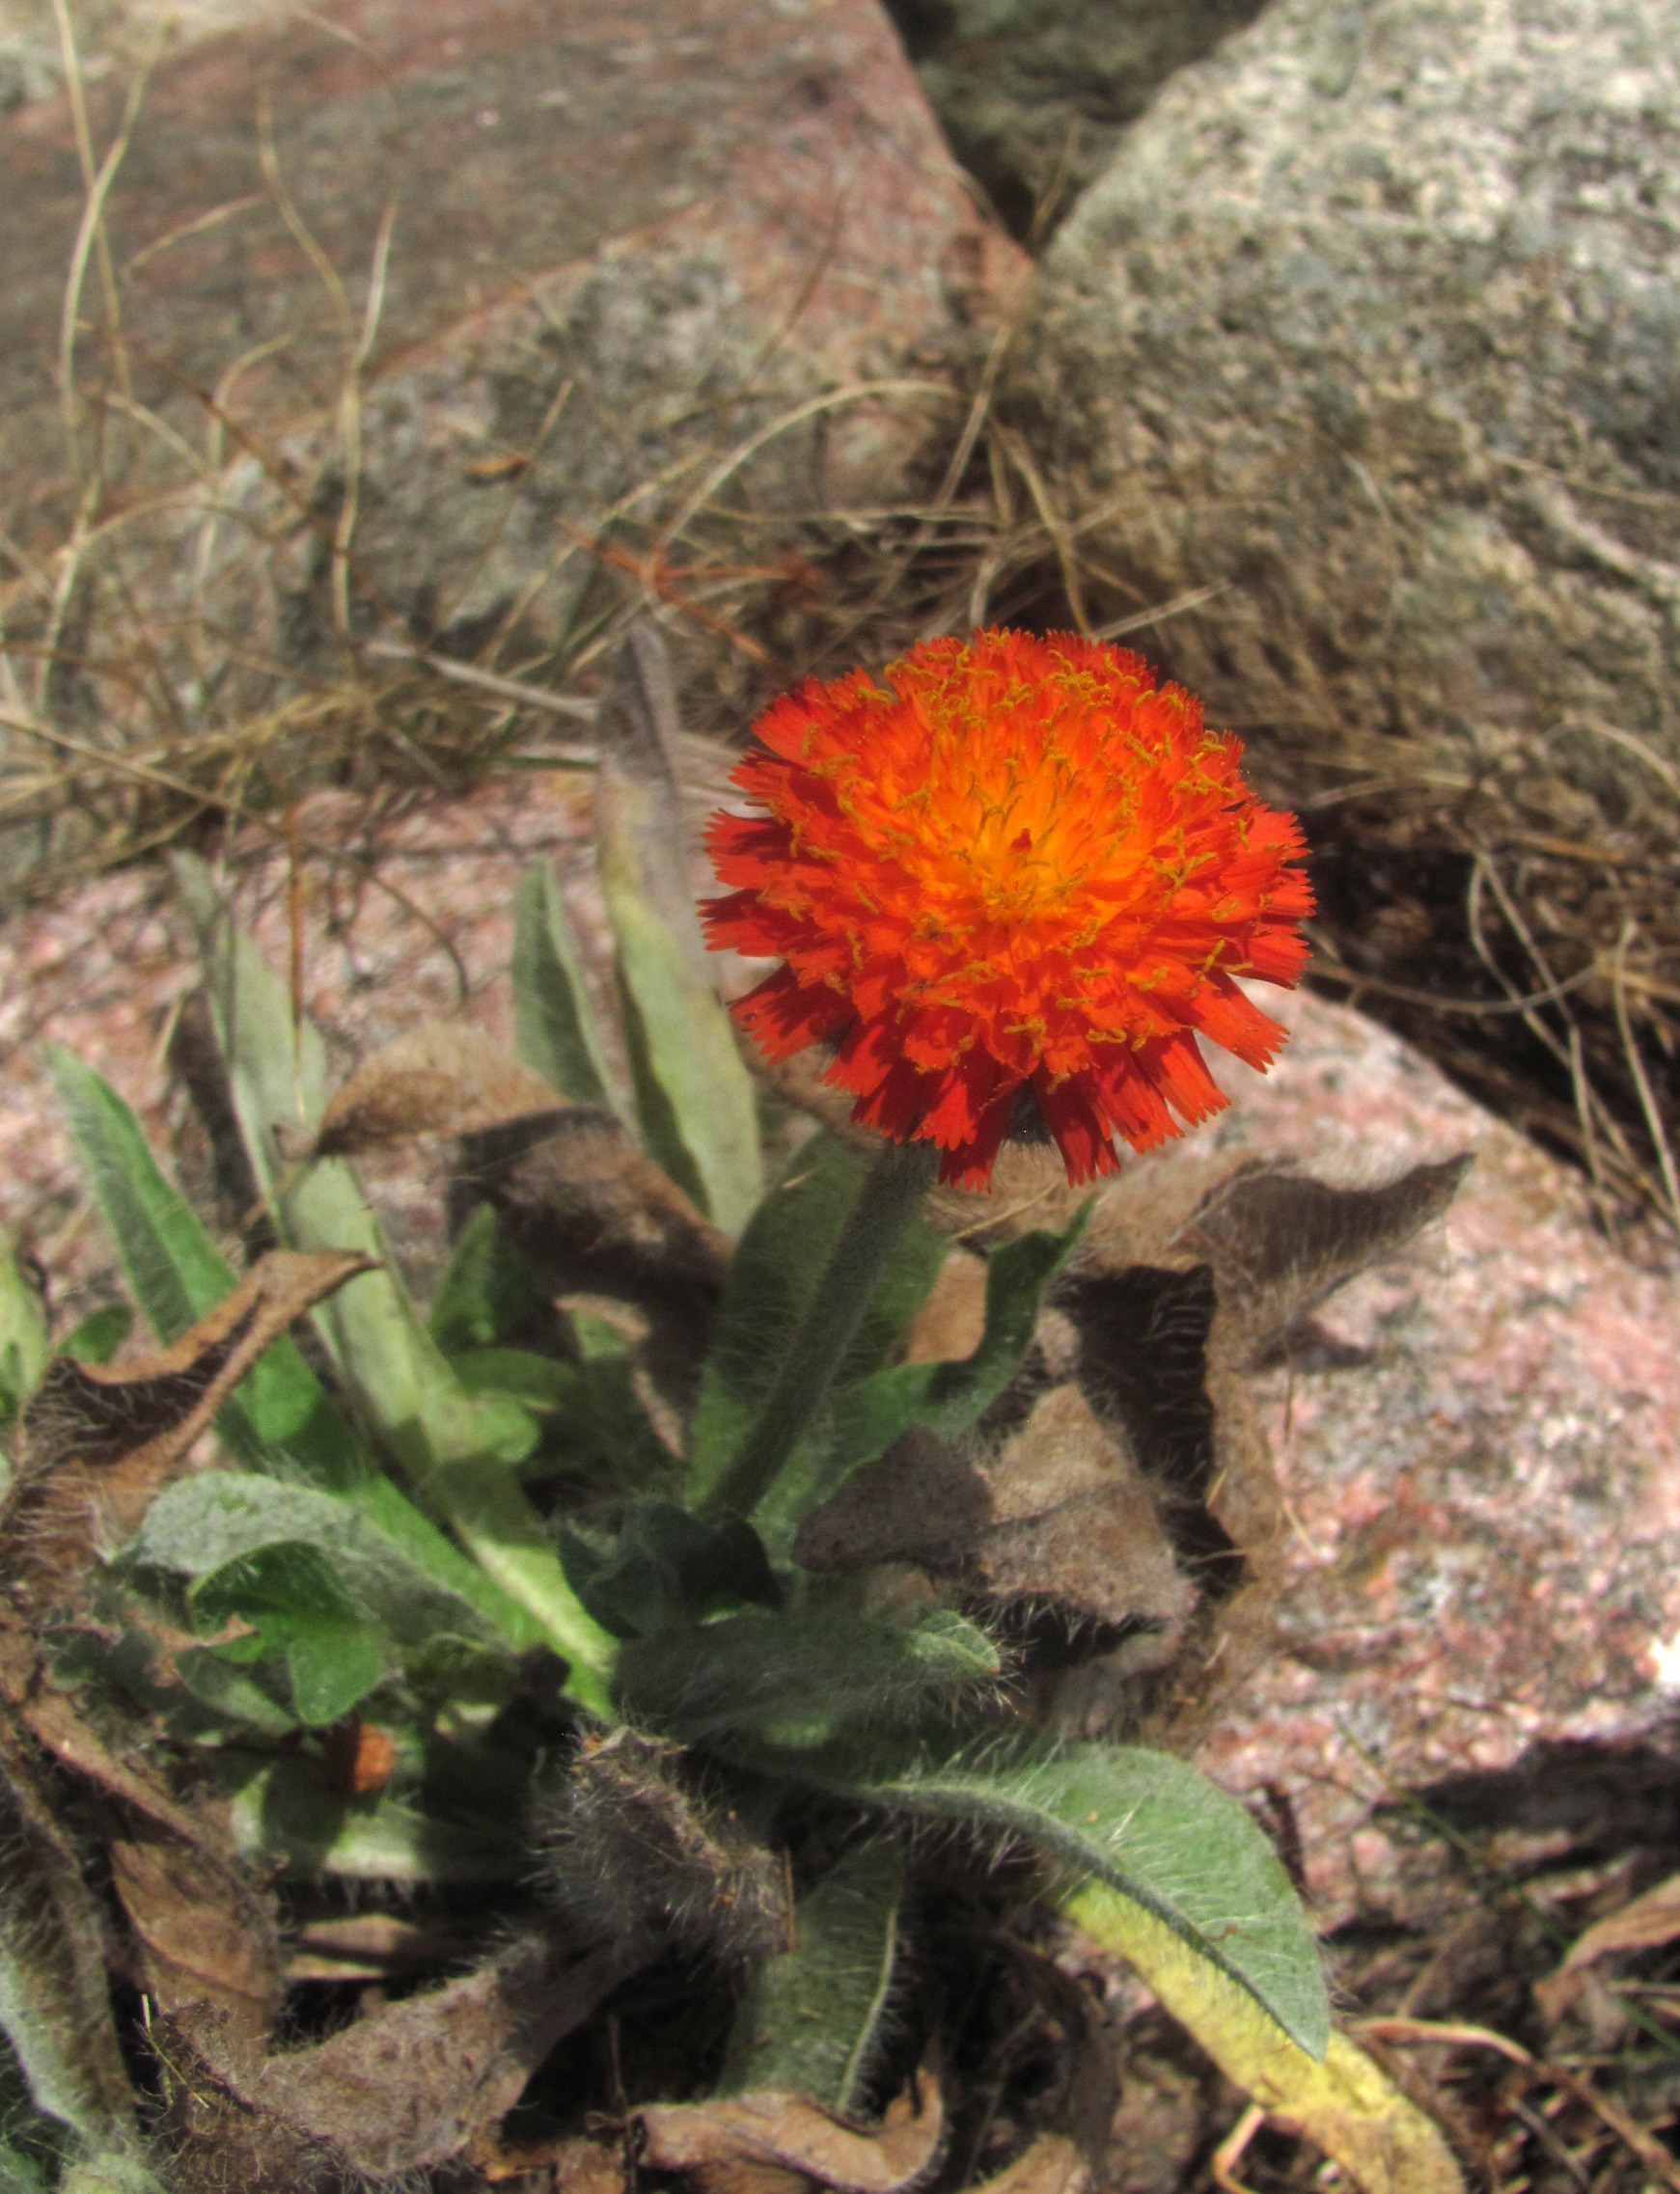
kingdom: Plantae
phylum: Tracheophyta
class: Magnoliopsida
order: Asterales
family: Asteraceae
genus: Pilosella
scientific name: Pilosella aurantiaca
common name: Pomerans-høgeurt
